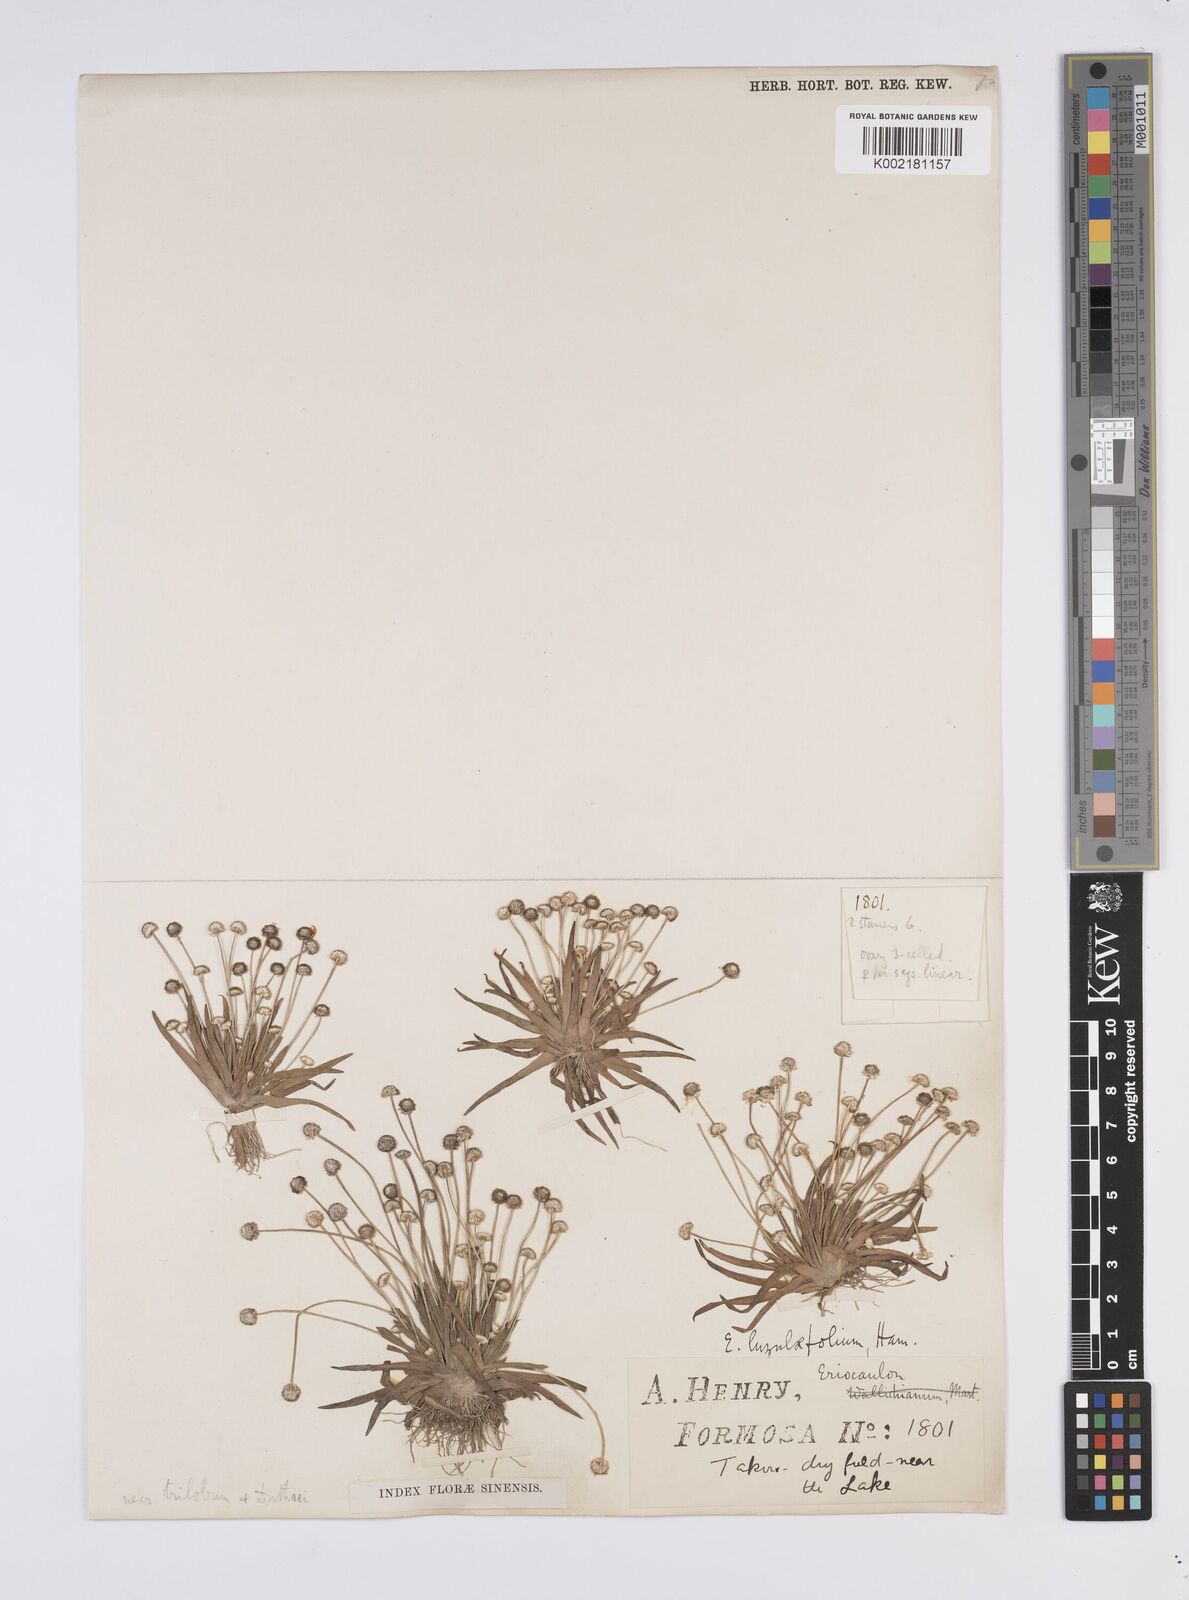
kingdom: Plantae
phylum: Tracheophyta
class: Liliopsida
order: Poales
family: Eriocaulaceae
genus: Eriocaulon
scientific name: Eriocaulon nepalense
